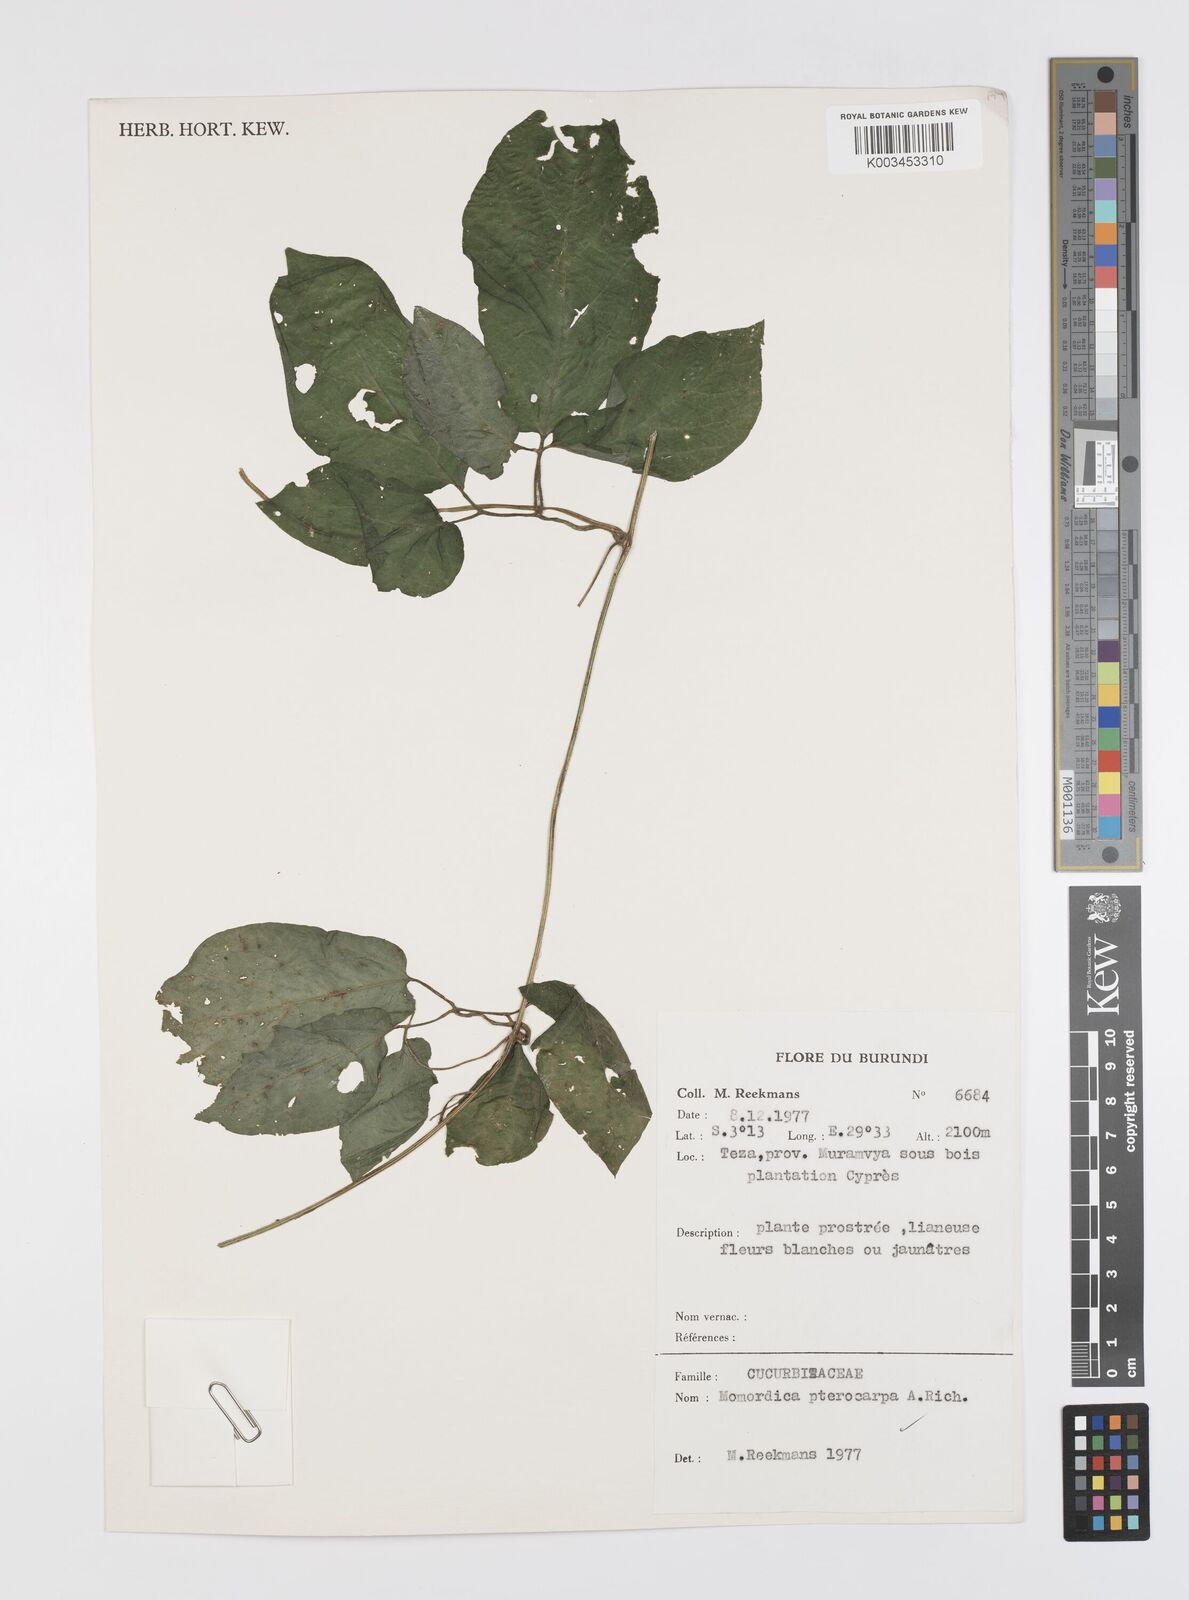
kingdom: Plantae
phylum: Tracheophyta
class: Magnoliopsida
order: Cucurbitales
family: Cucurbitaceae
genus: Momordica
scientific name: Momordica pterocarpa
